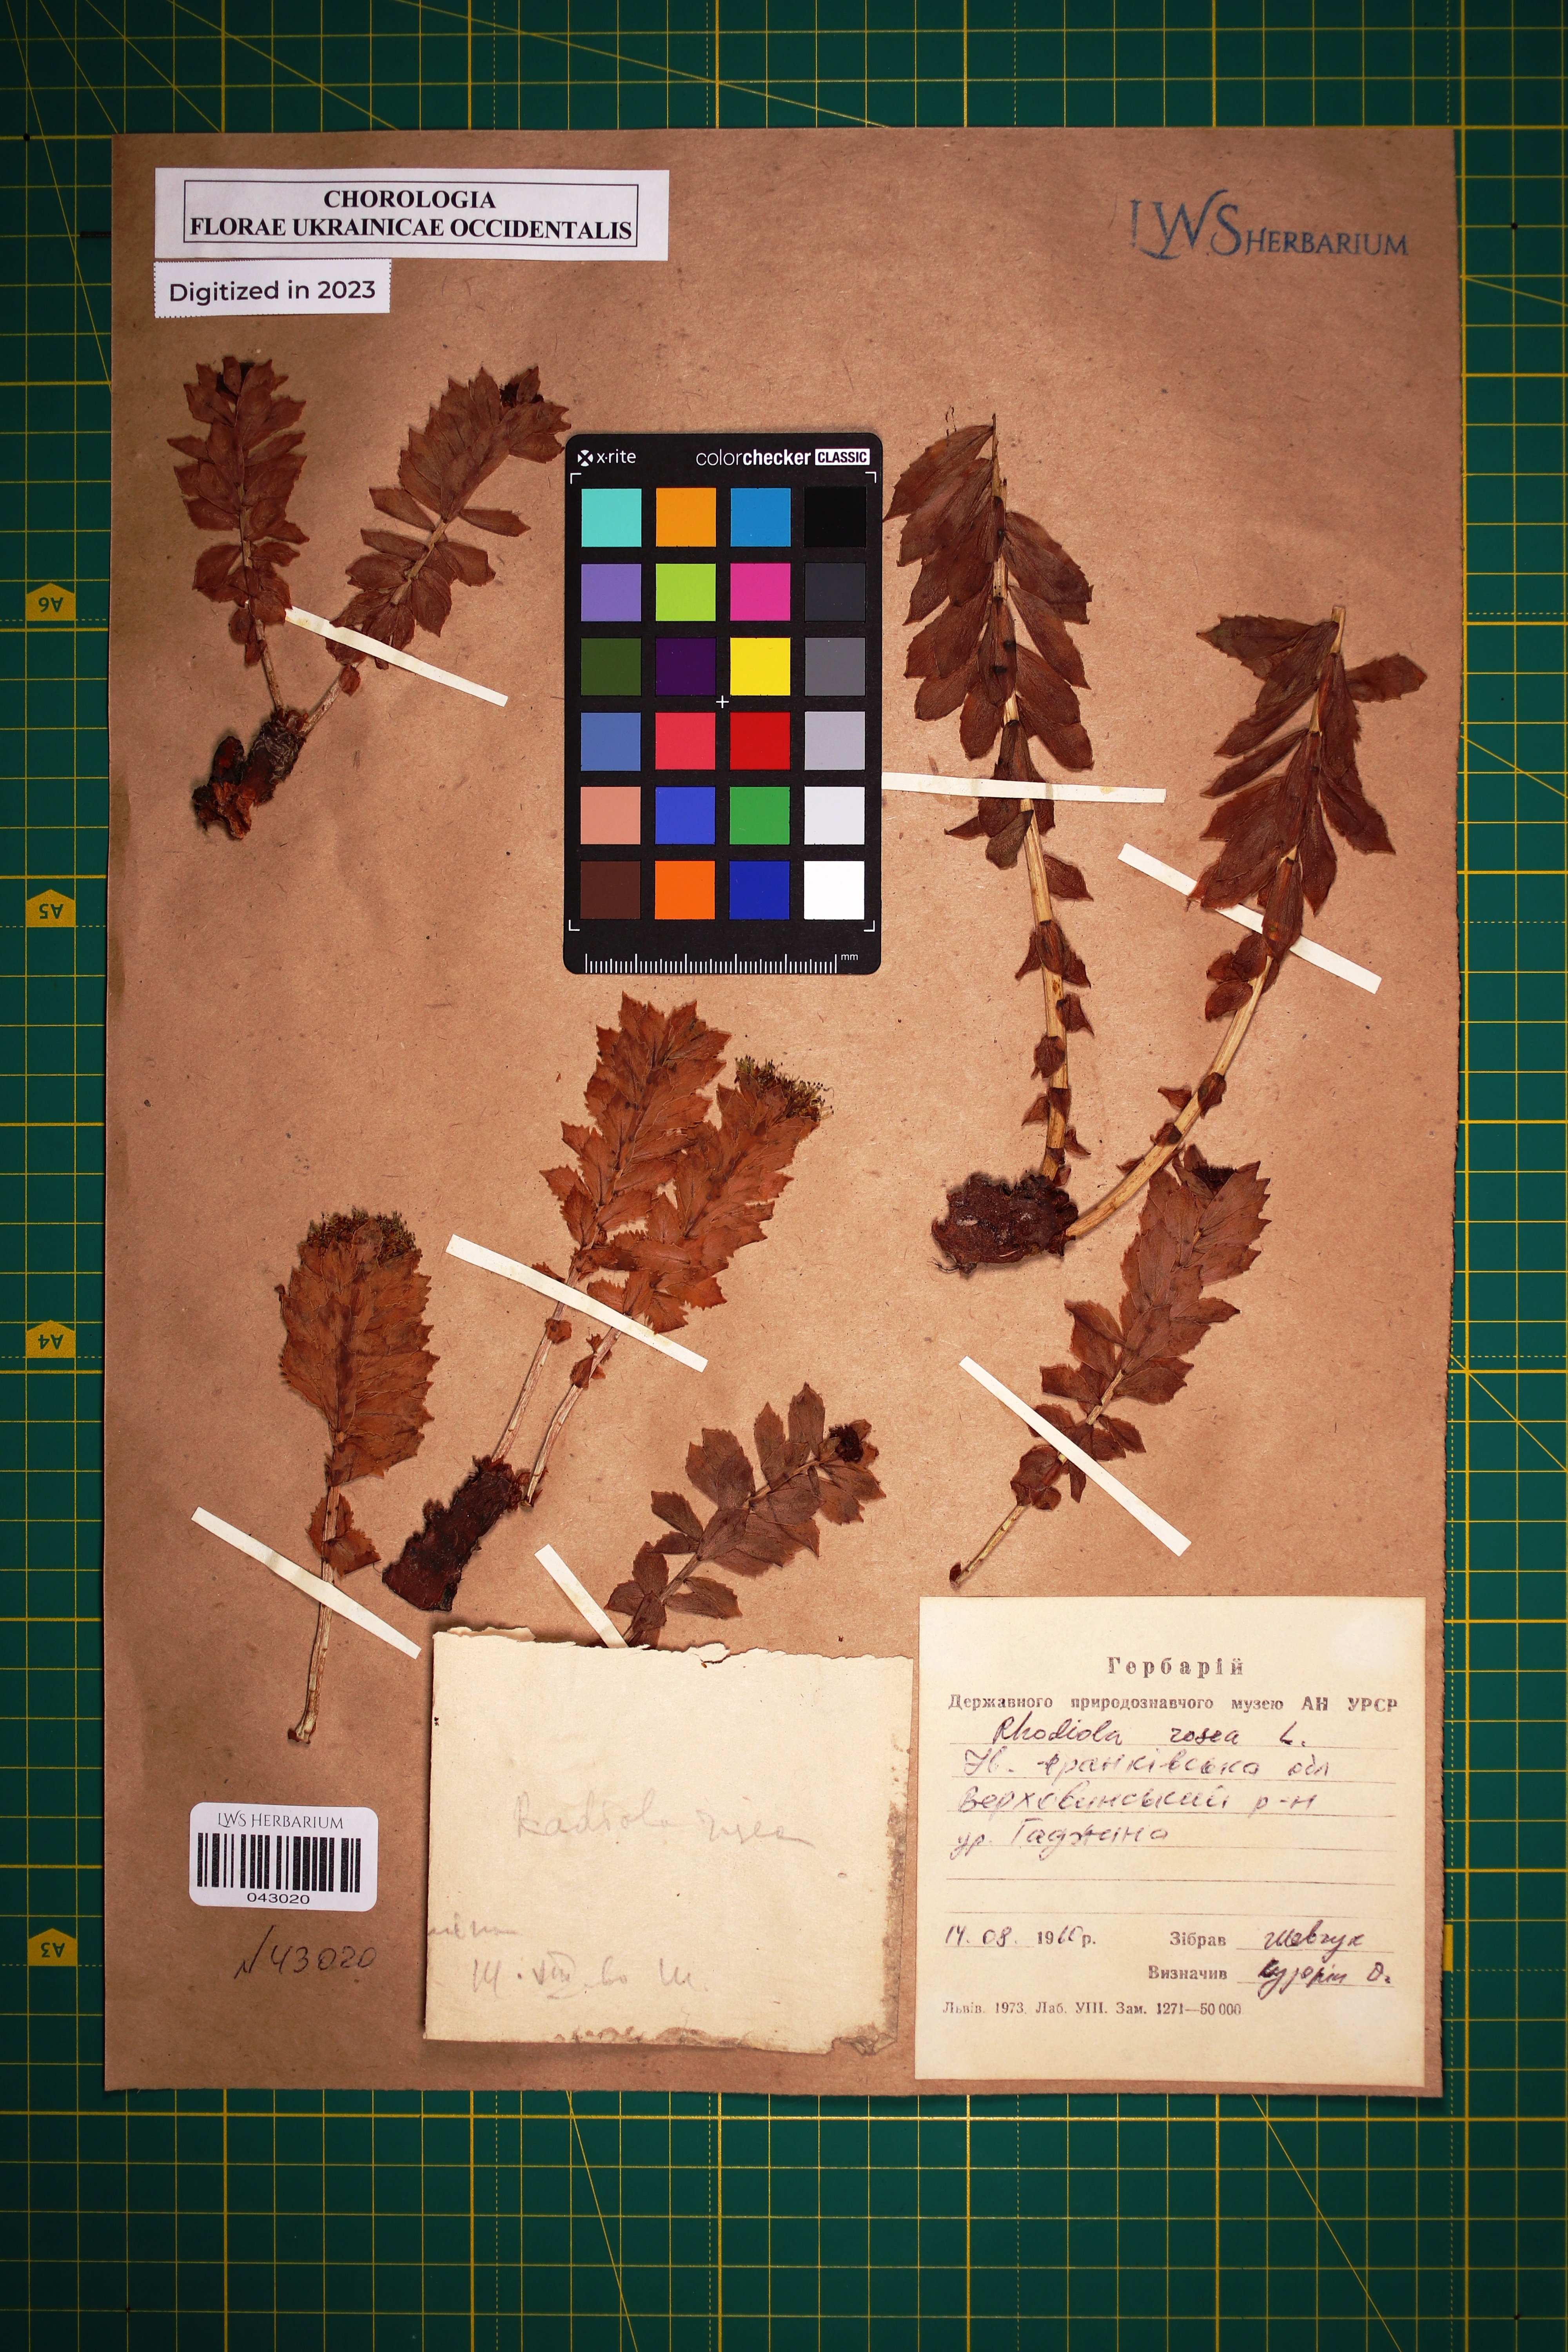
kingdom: Plantae
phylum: Tracheophyta
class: Magnoliopsida
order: Saxifragales
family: Crassulaceae
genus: Rhodiola
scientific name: Rhodiola rosea
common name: Roseroot
